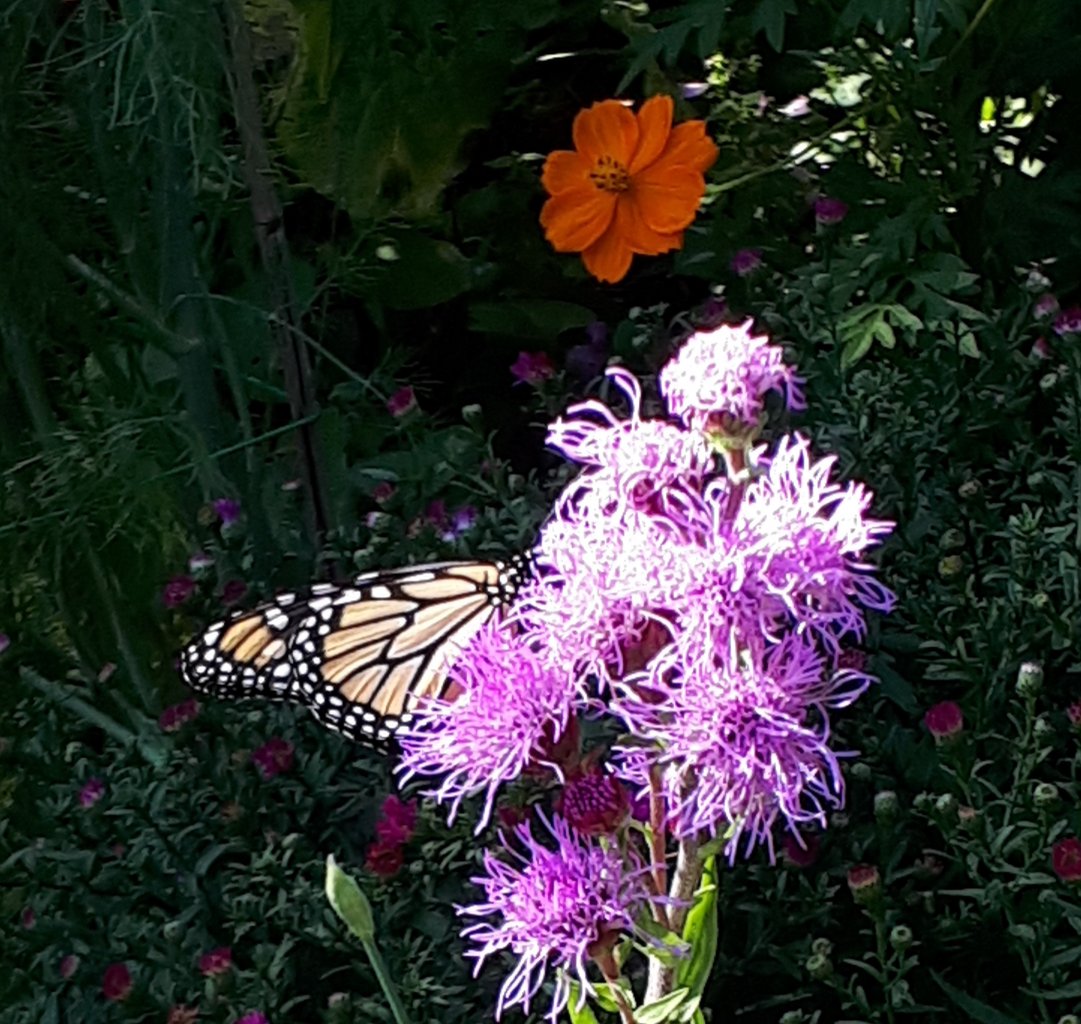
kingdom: Animalia
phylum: Arthropoda
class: Insecta
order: Lepidoptera
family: Nymphalidae
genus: Danaus
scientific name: Danaus plexippus
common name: Monarch
